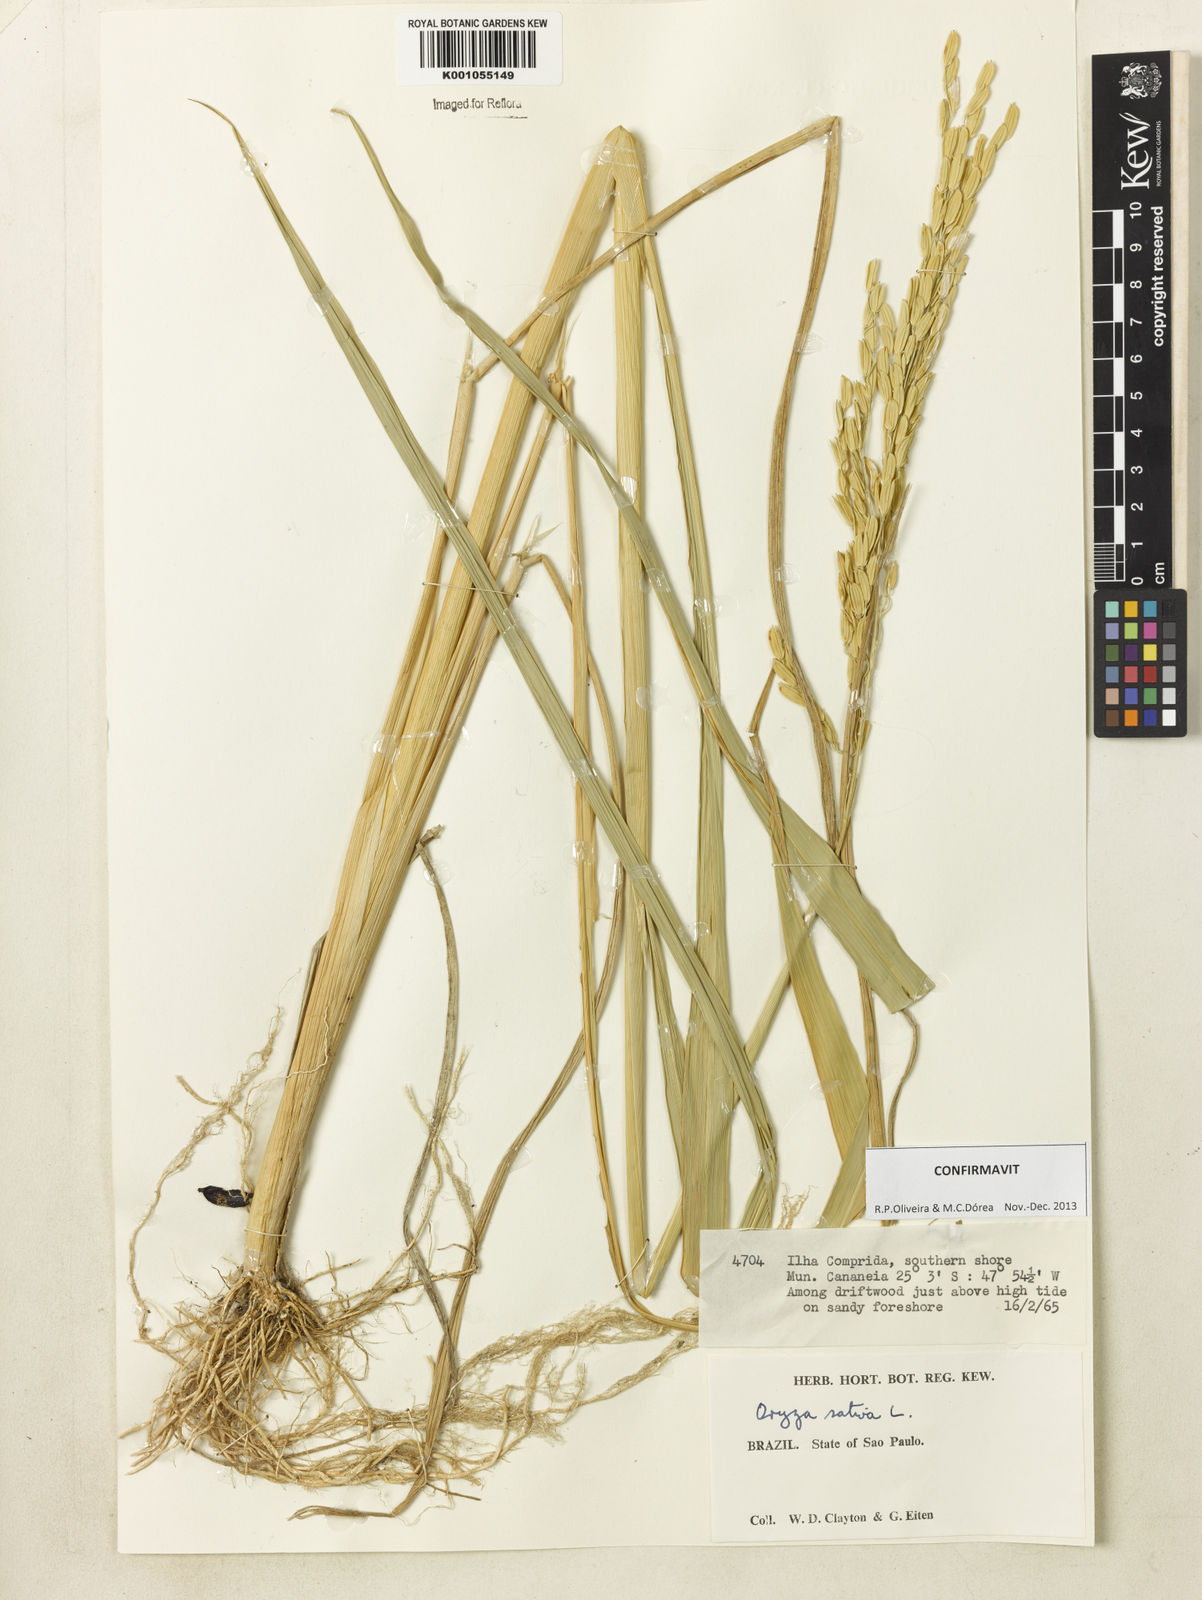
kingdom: Plantae
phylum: Tracheophyta
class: Liliopsida
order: Poales
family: Poaceae
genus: Oryza
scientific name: Oryza sativa
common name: Rice
